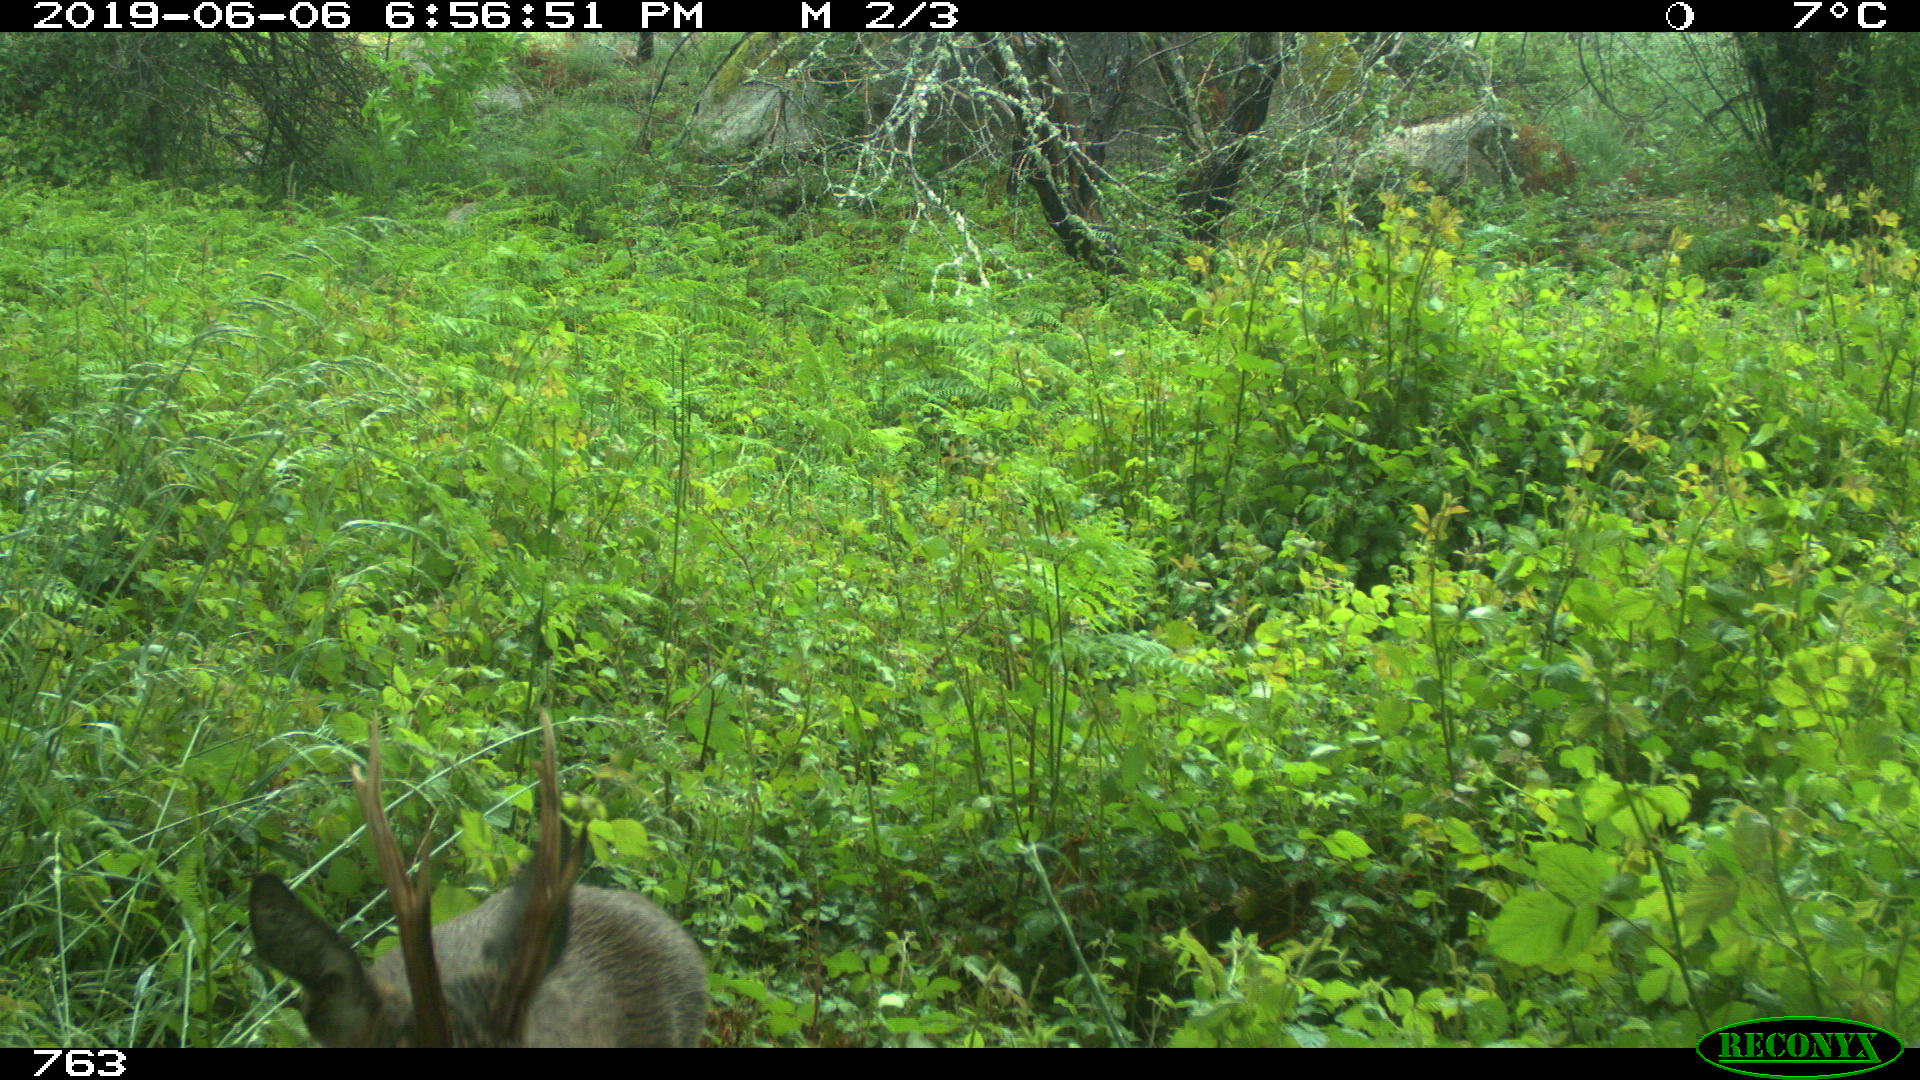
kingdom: Animalia
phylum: Chordata
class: Mammalia
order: Artiodactyla
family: Cervidae
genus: Capreolus
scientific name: Capreolus capreolus
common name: Western roe deer
